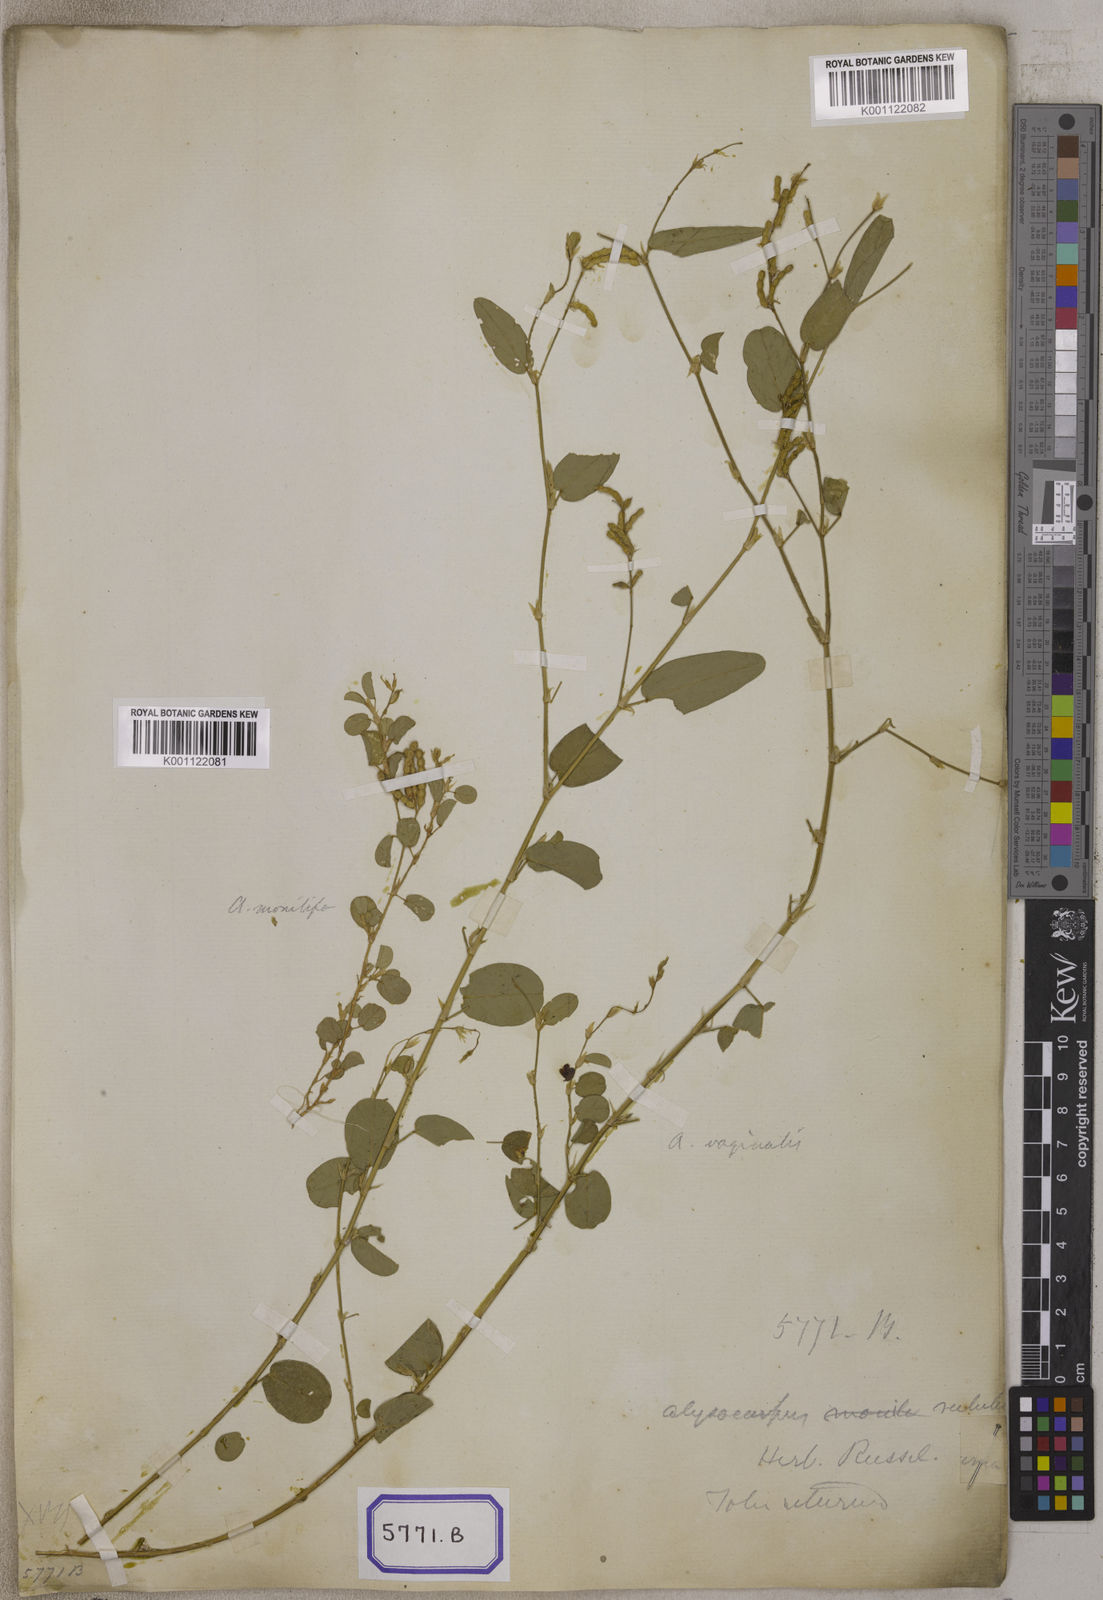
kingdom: Plantae
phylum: Tracheophyta
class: Magnoliopsida
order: Fabales
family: Fabaceae
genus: Alysicarpus
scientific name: Alysicarpus vaginalis
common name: White moneywort
